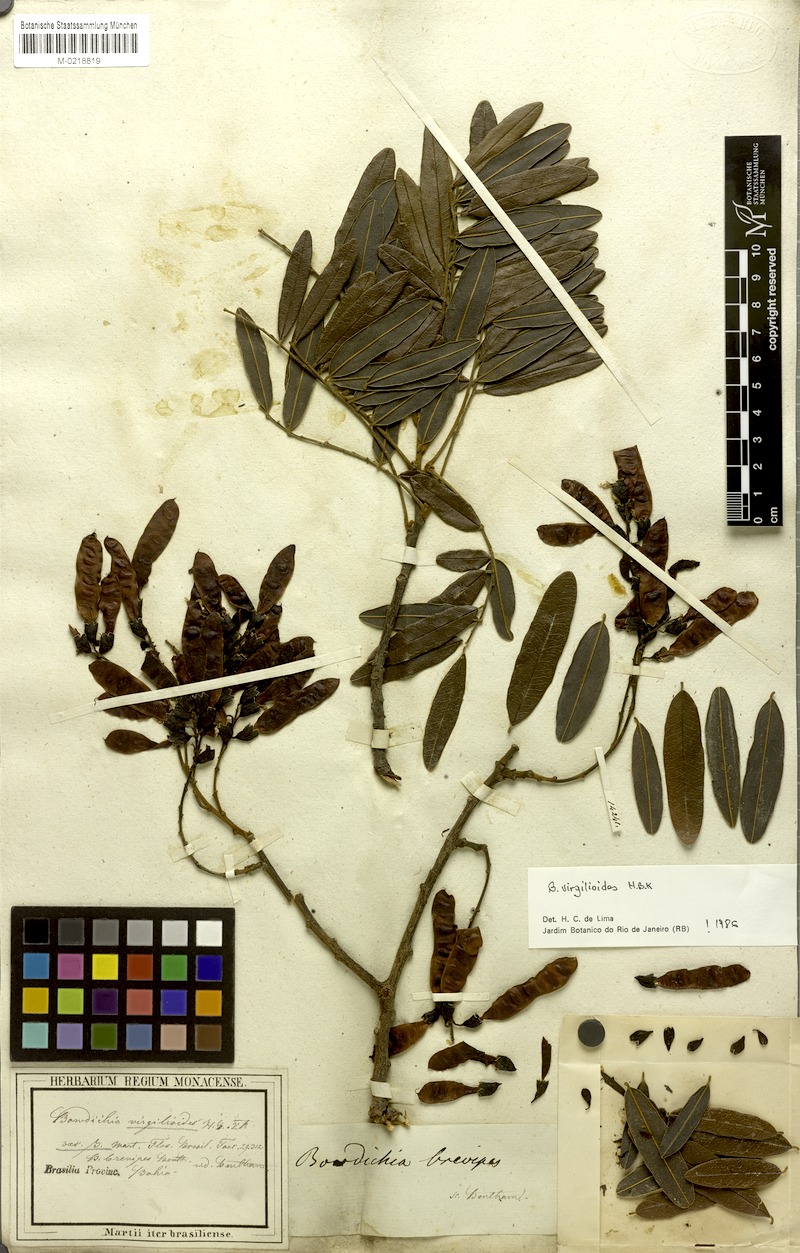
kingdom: Plantae
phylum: Tracheophyta
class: Magnoliopsida
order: Fabales
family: Fabaceae
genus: Bowdichia
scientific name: Bowdichia virgilioides
